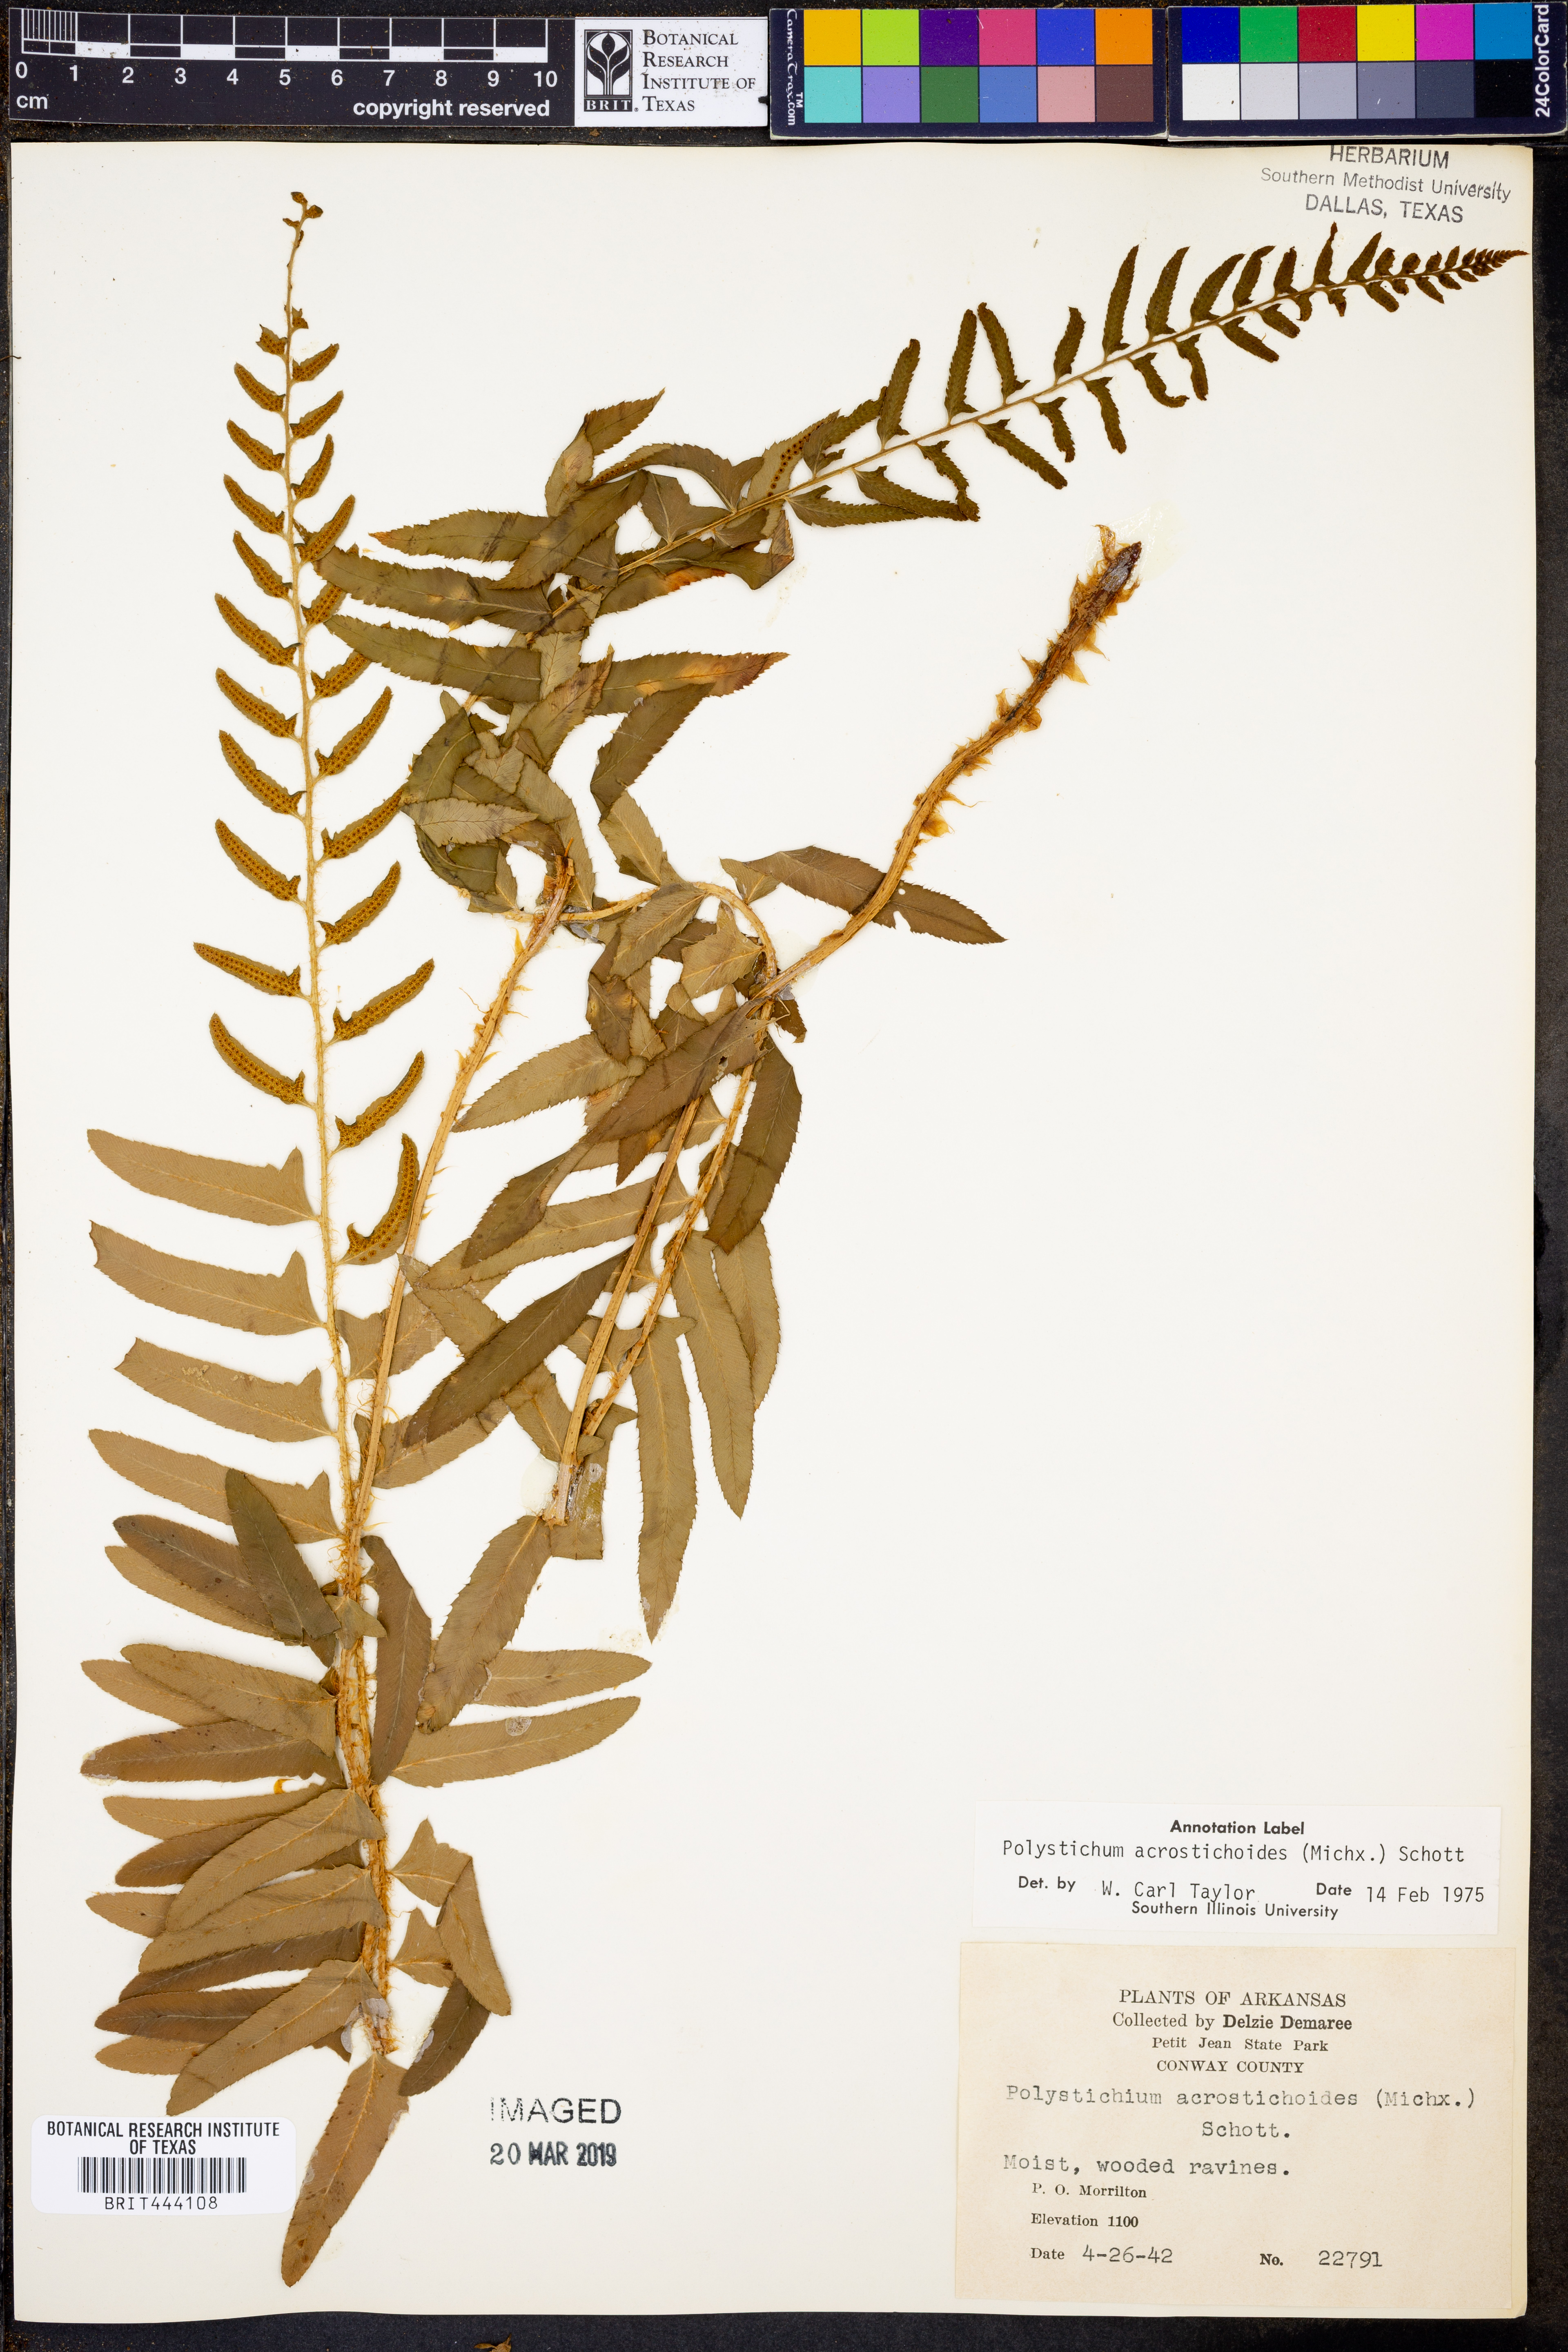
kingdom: Plantae
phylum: Tracheophyta
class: Polypodiopsida
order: Polypodiales
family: Dryopteridaceae
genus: Polystichum
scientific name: Polystichum acrostichoides
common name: Christmas fern
